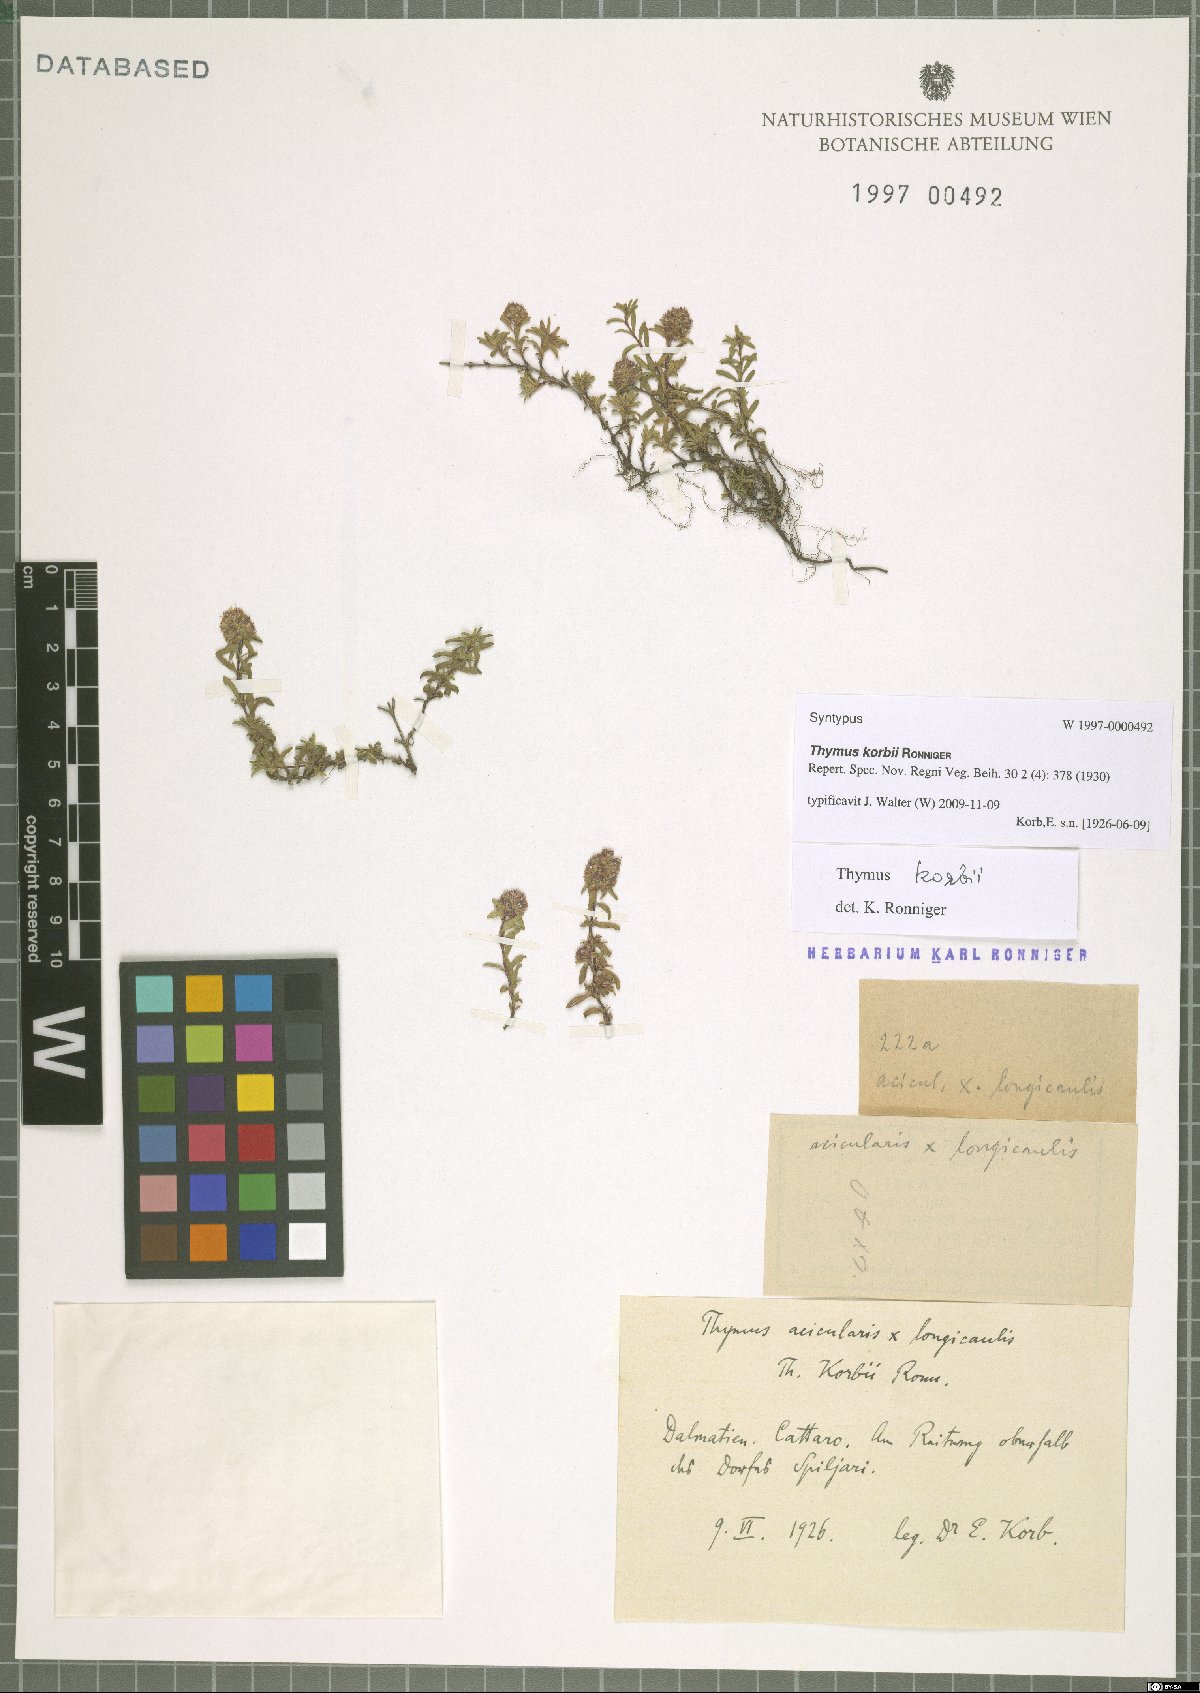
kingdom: Plantae
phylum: Tracheophyta
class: Magnoliopsida
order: Lamiales
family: Lamiaceae
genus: Thymus
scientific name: Thymus korbii
